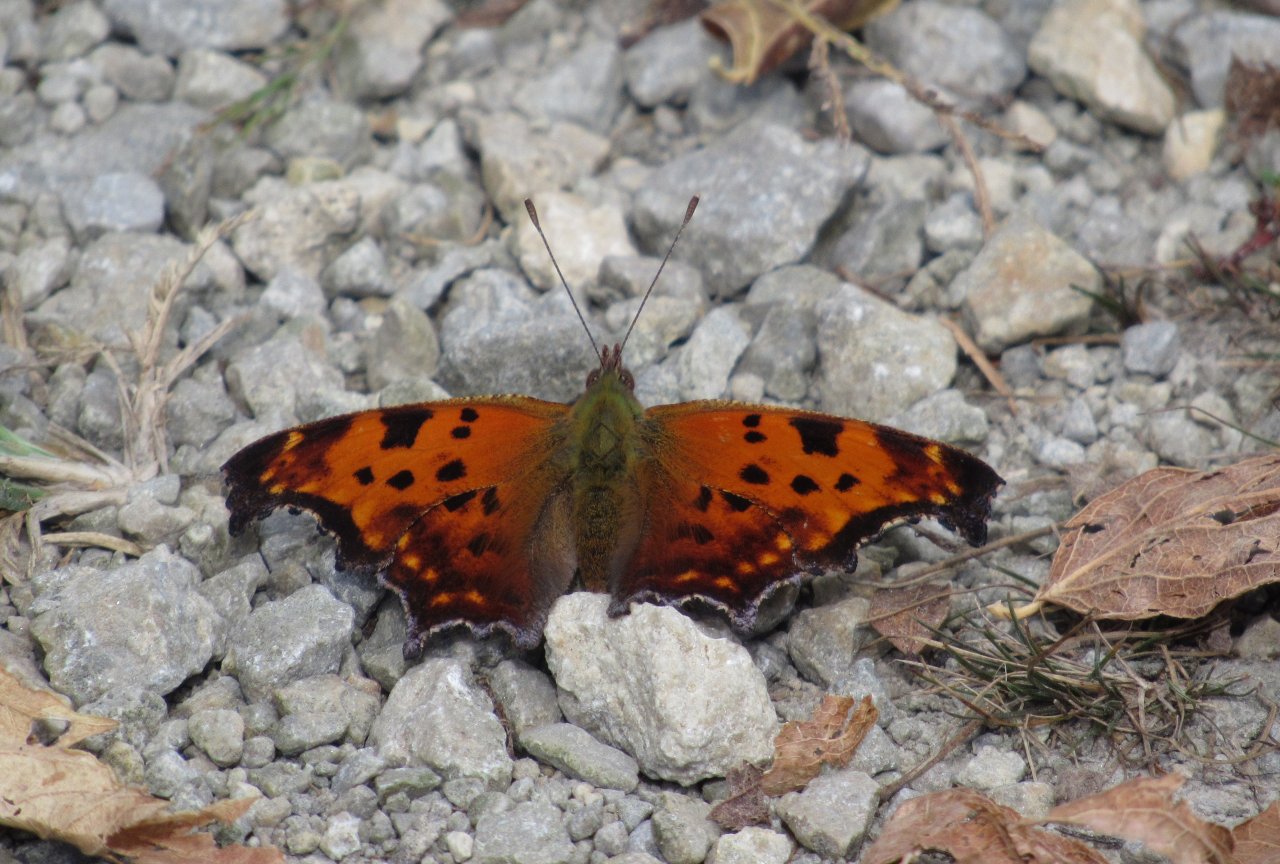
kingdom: Animalia
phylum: Arthropoda
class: Insecta
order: Lepidoptera
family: Nymphalidae
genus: Polygonia
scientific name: Polygonia comma
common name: Eastern Comma
